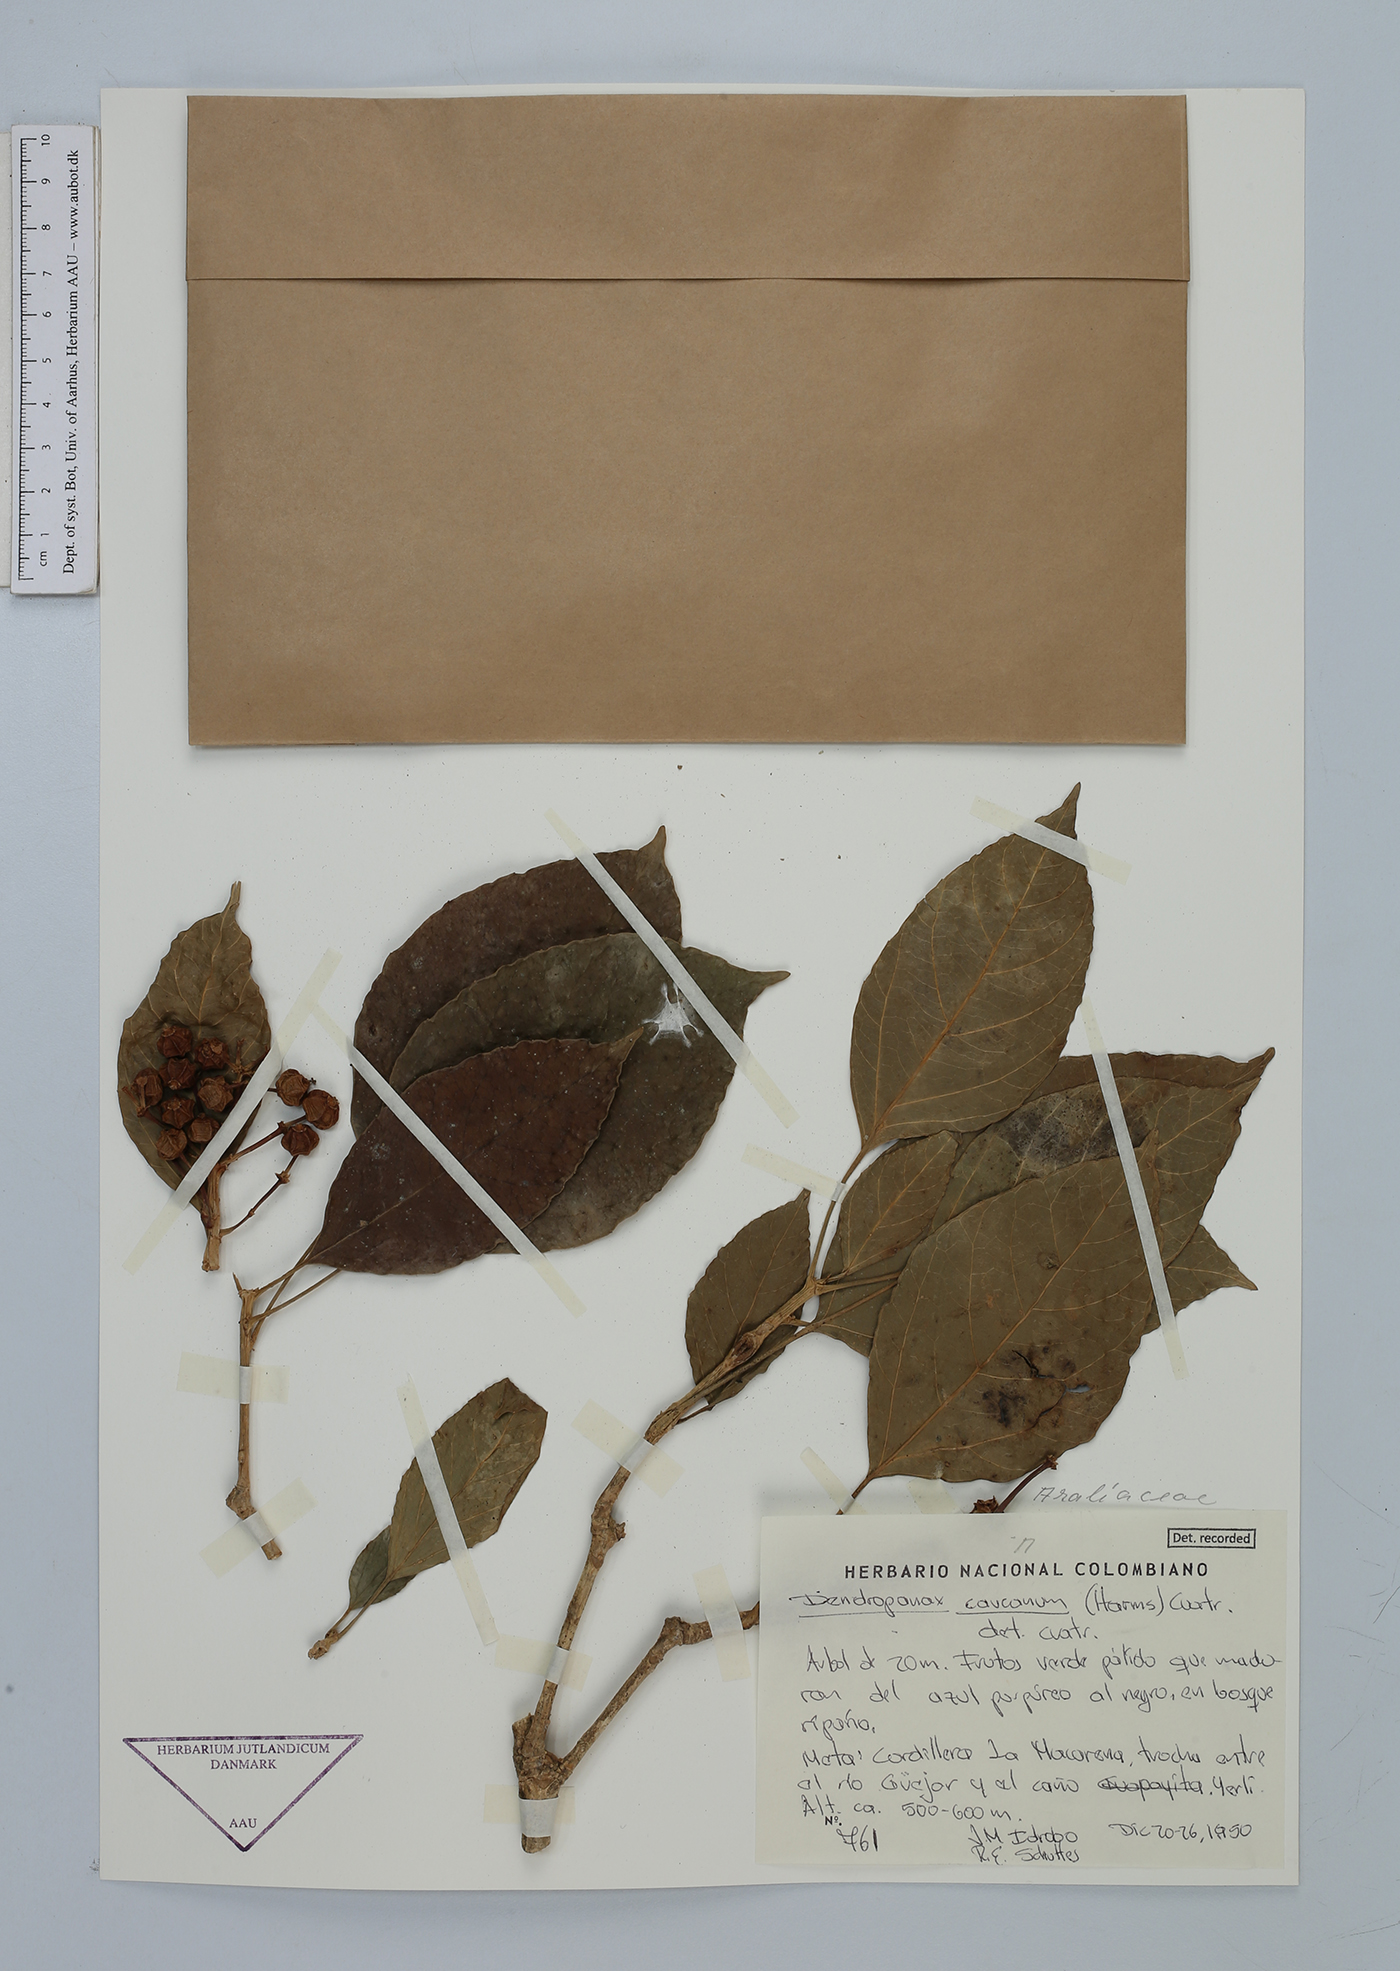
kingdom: Plantae
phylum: Tracheophyta
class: Magnoliopsida
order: Apiales
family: Araliaceae
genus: Dendropanax
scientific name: Dendropanax caucanus
